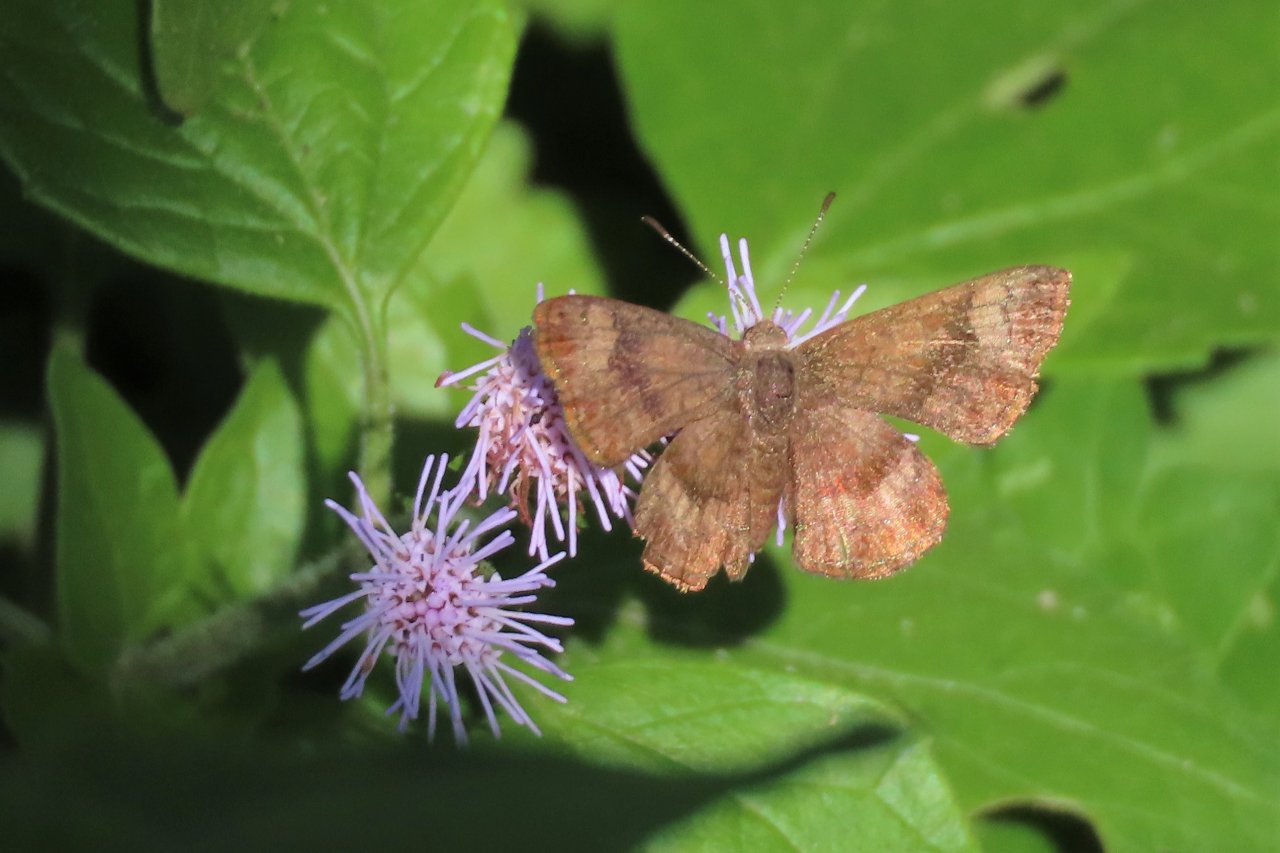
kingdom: Animalia
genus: Calephelis
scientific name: Calephelis nemesis
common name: Fatal Metalmark
